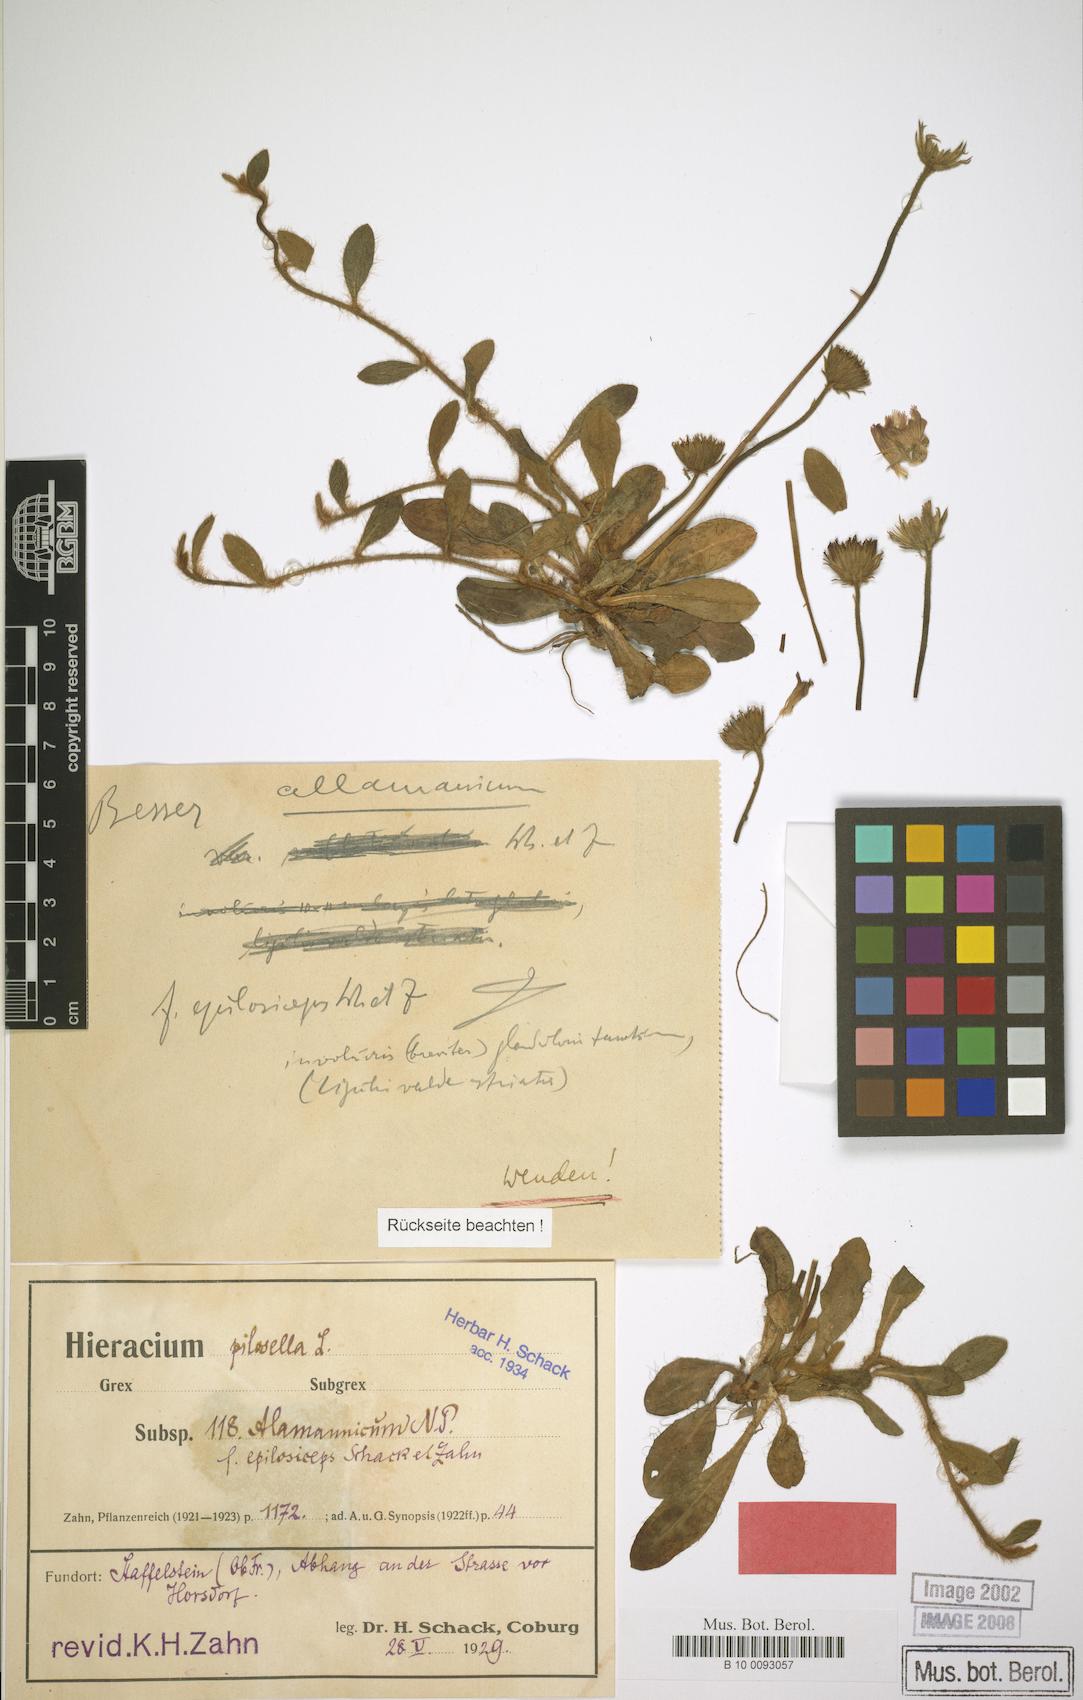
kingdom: Plantae
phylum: Tracheophyta
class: Magnoliopsida
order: Asterales
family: Asteraceae
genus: Pilosella
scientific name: Pilosella officinarum
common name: Mouse-ear hawkweed
